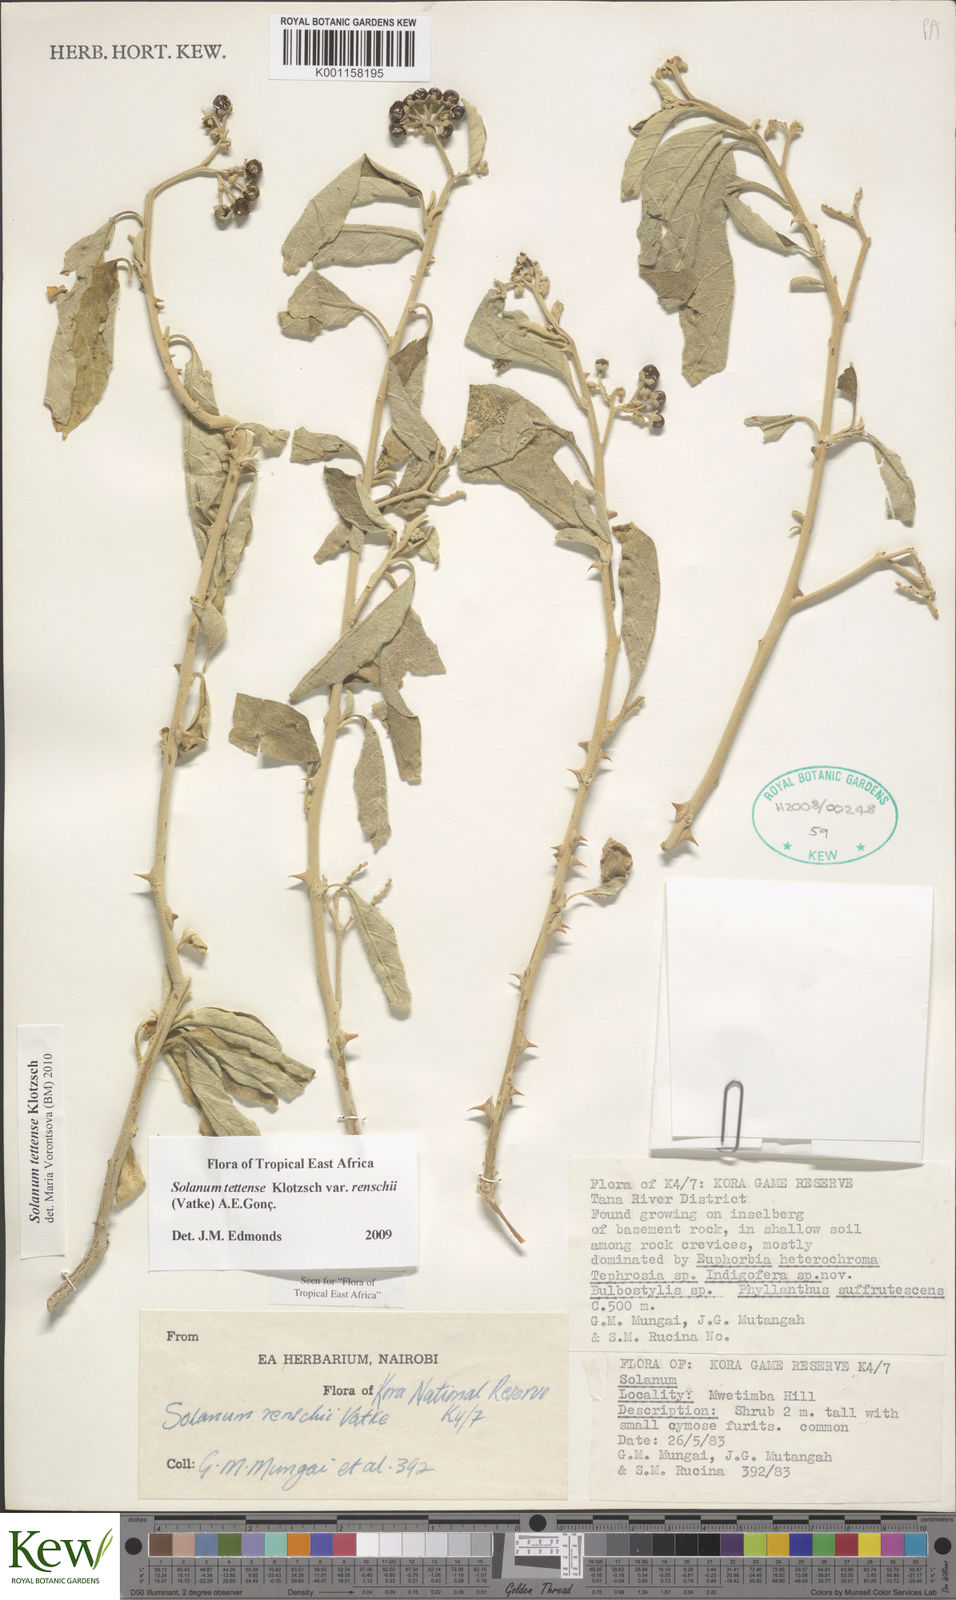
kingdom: Plantae
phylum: Tracheophyta
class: Magnoliopsida
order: Solanales
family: Solanaceae
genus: Solanum
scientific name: Solanum tettense
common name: Mozambique bitter apple
